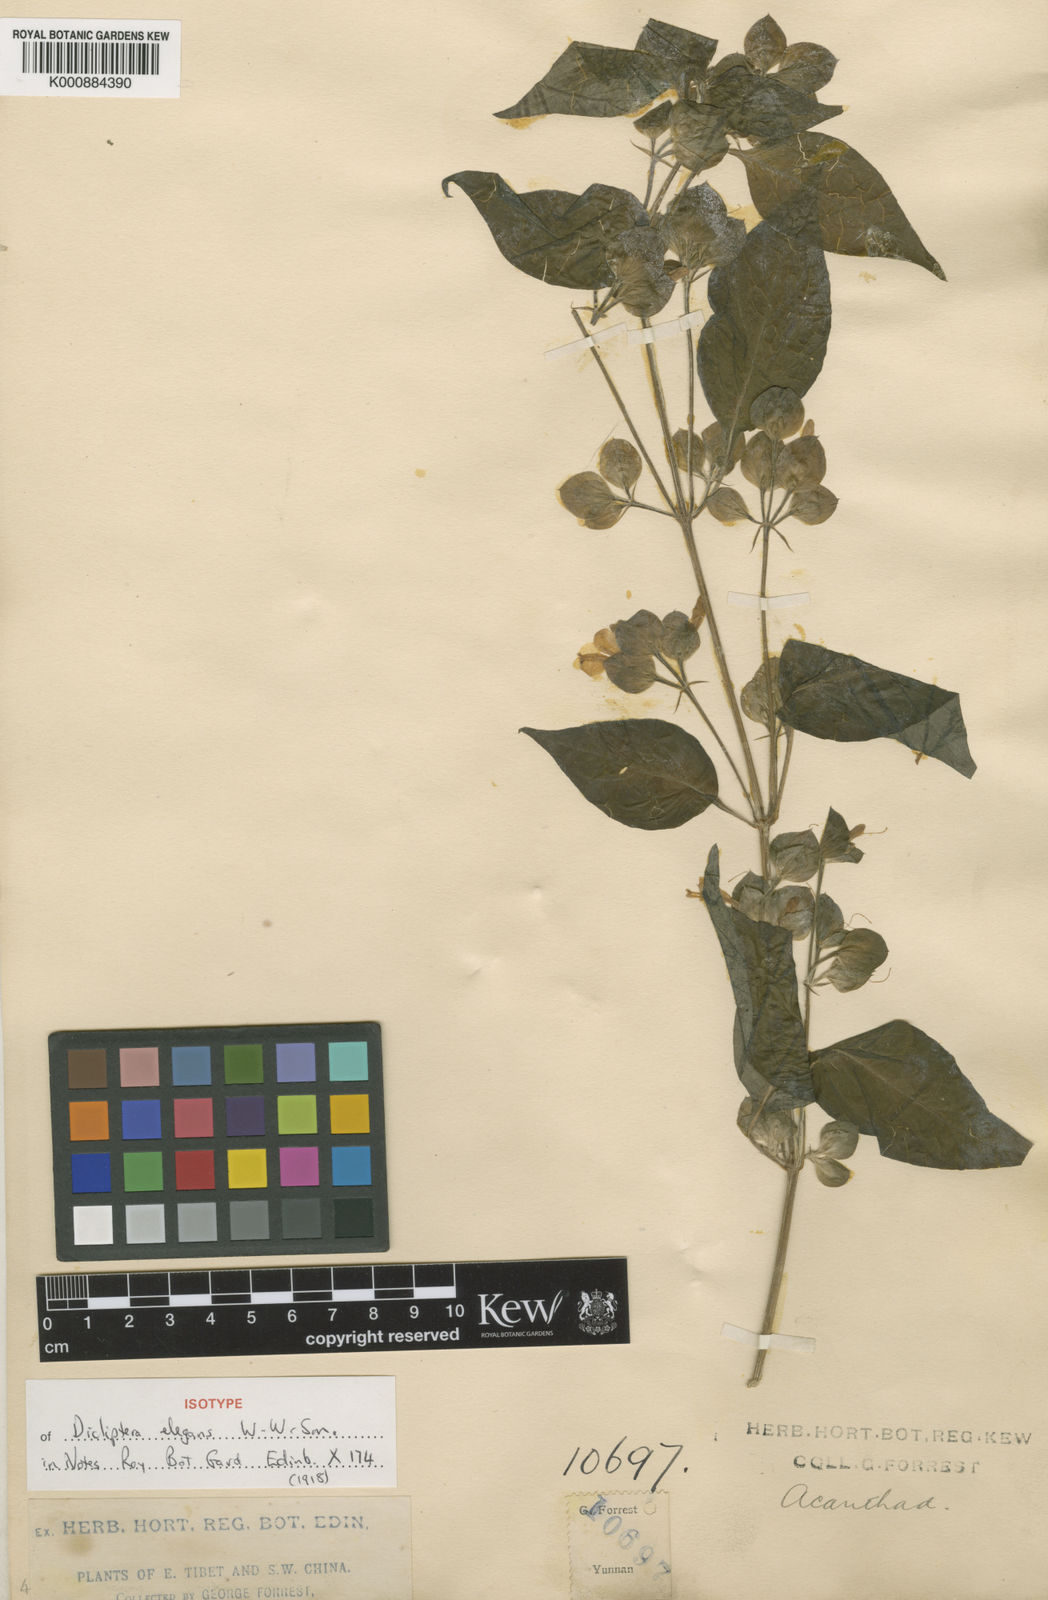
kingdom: Plantae
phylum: Tracheophyta
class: Magnoliopsida
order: Lamiales
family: Acanthaceae
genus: Dicliptera
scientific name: Dicliptera
